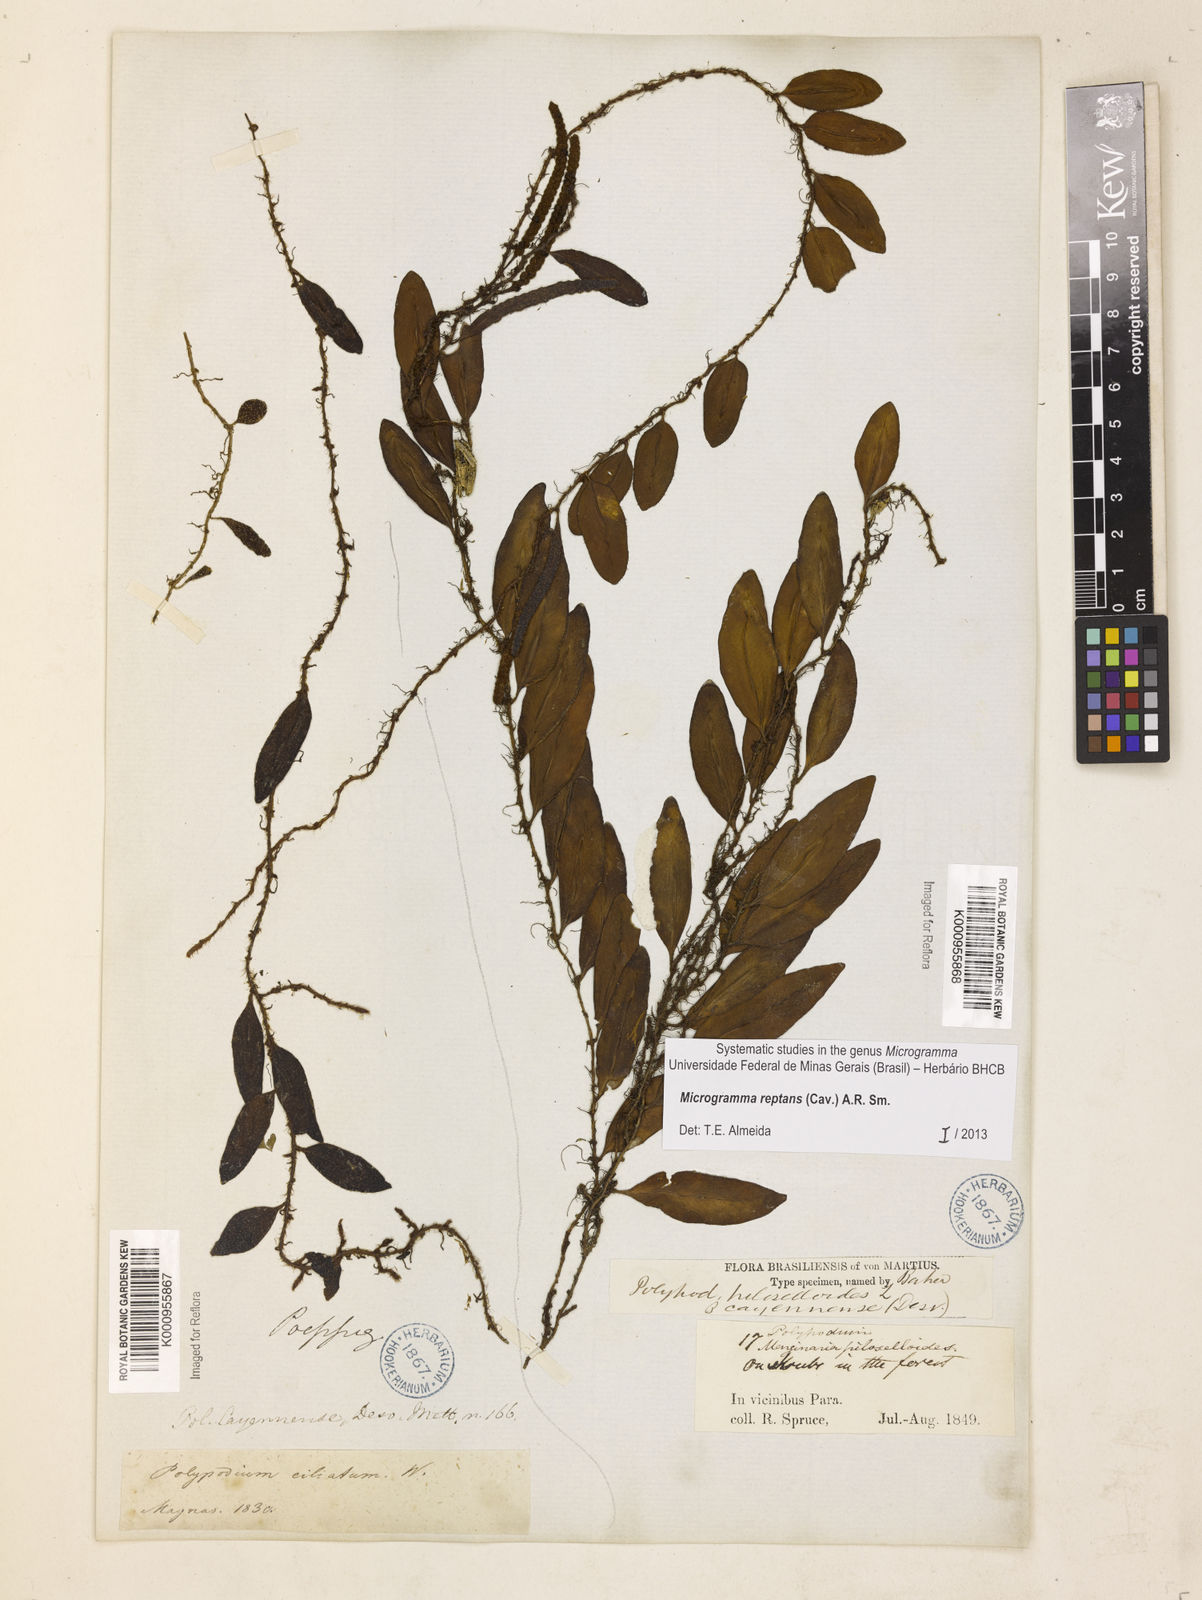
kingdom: Plantae
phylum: Tracheophyta
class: Polypodiopsida
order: Polypodiales
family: Polypodiaceae
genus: Microgramma
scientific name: Microgramma reptans
